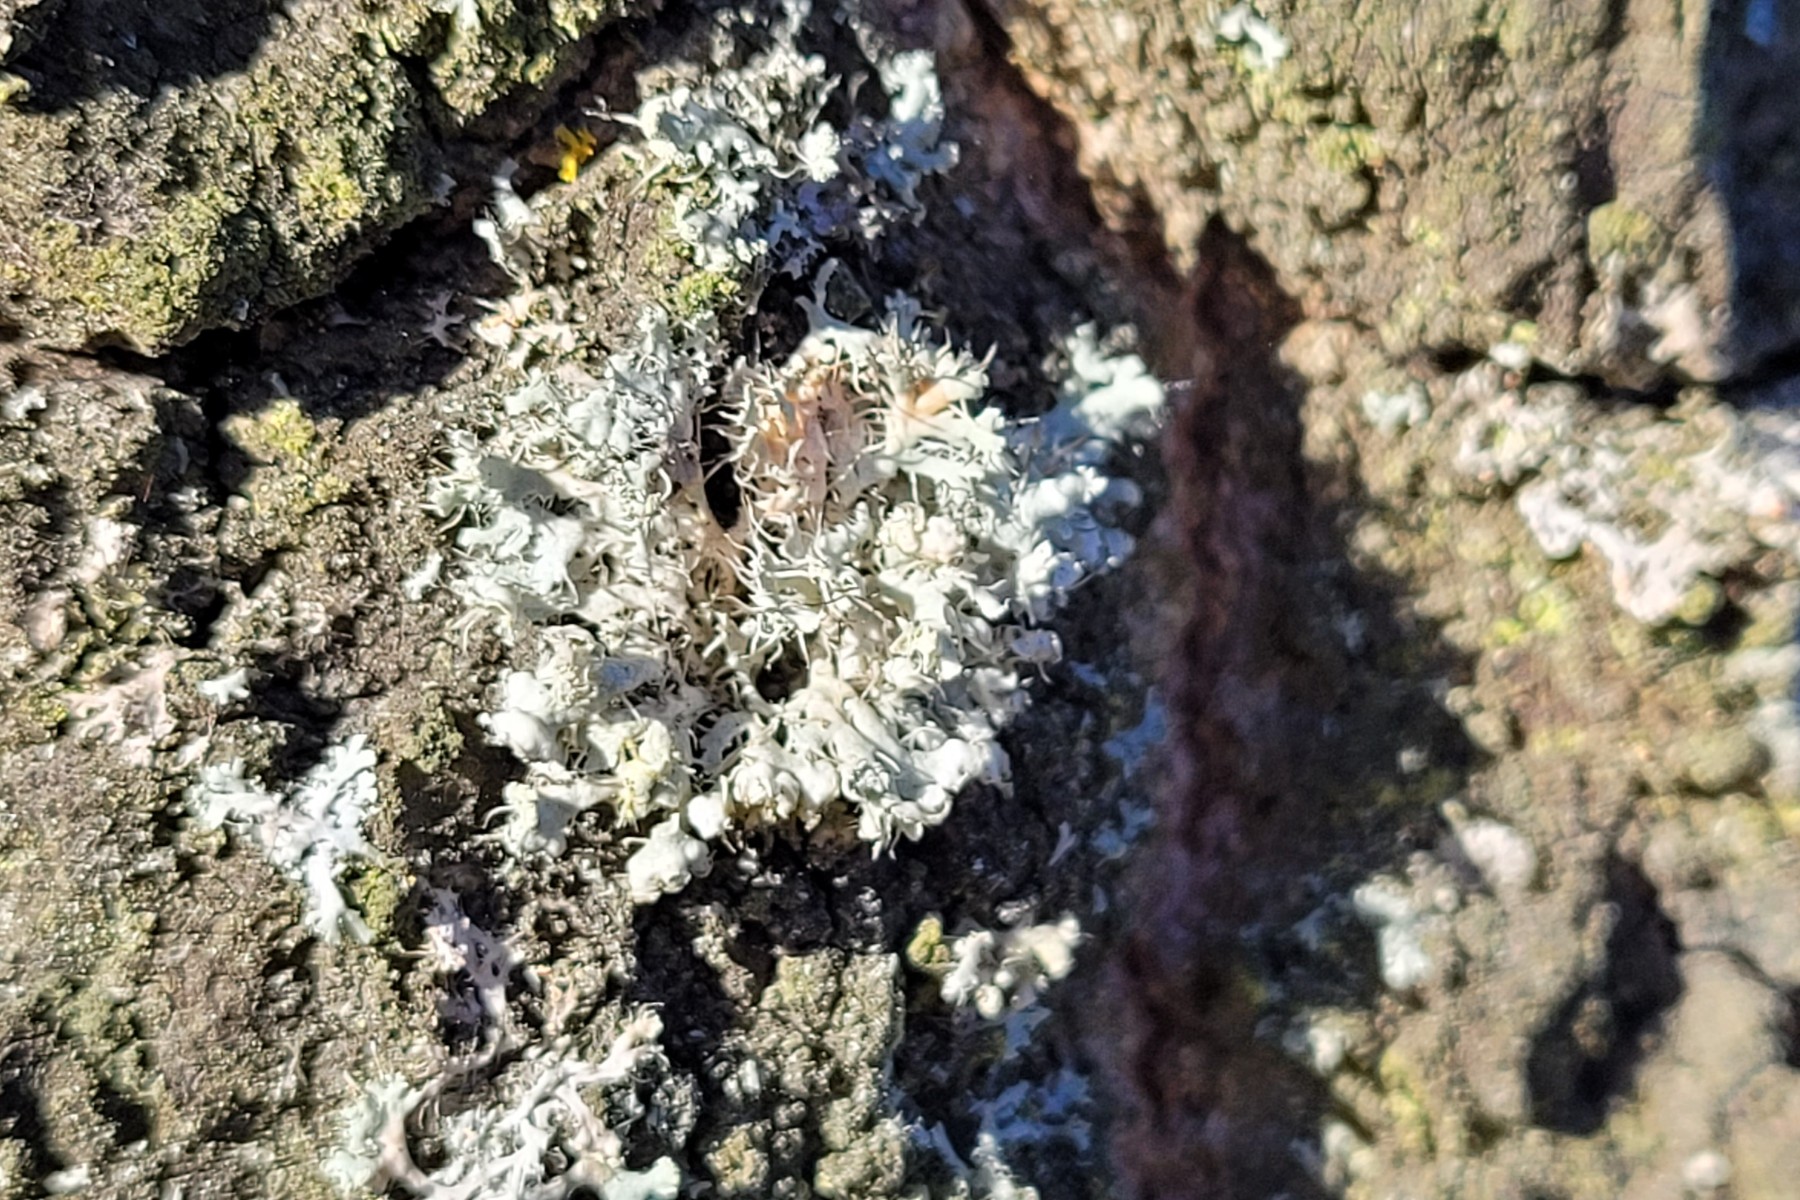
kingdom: Fungi
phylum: Ascomycota
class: Lecanoromycetes
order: Caliciales
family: Physciaceae
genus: Physcia
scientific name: Physcia adscendens
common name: hætte-rosetlav
